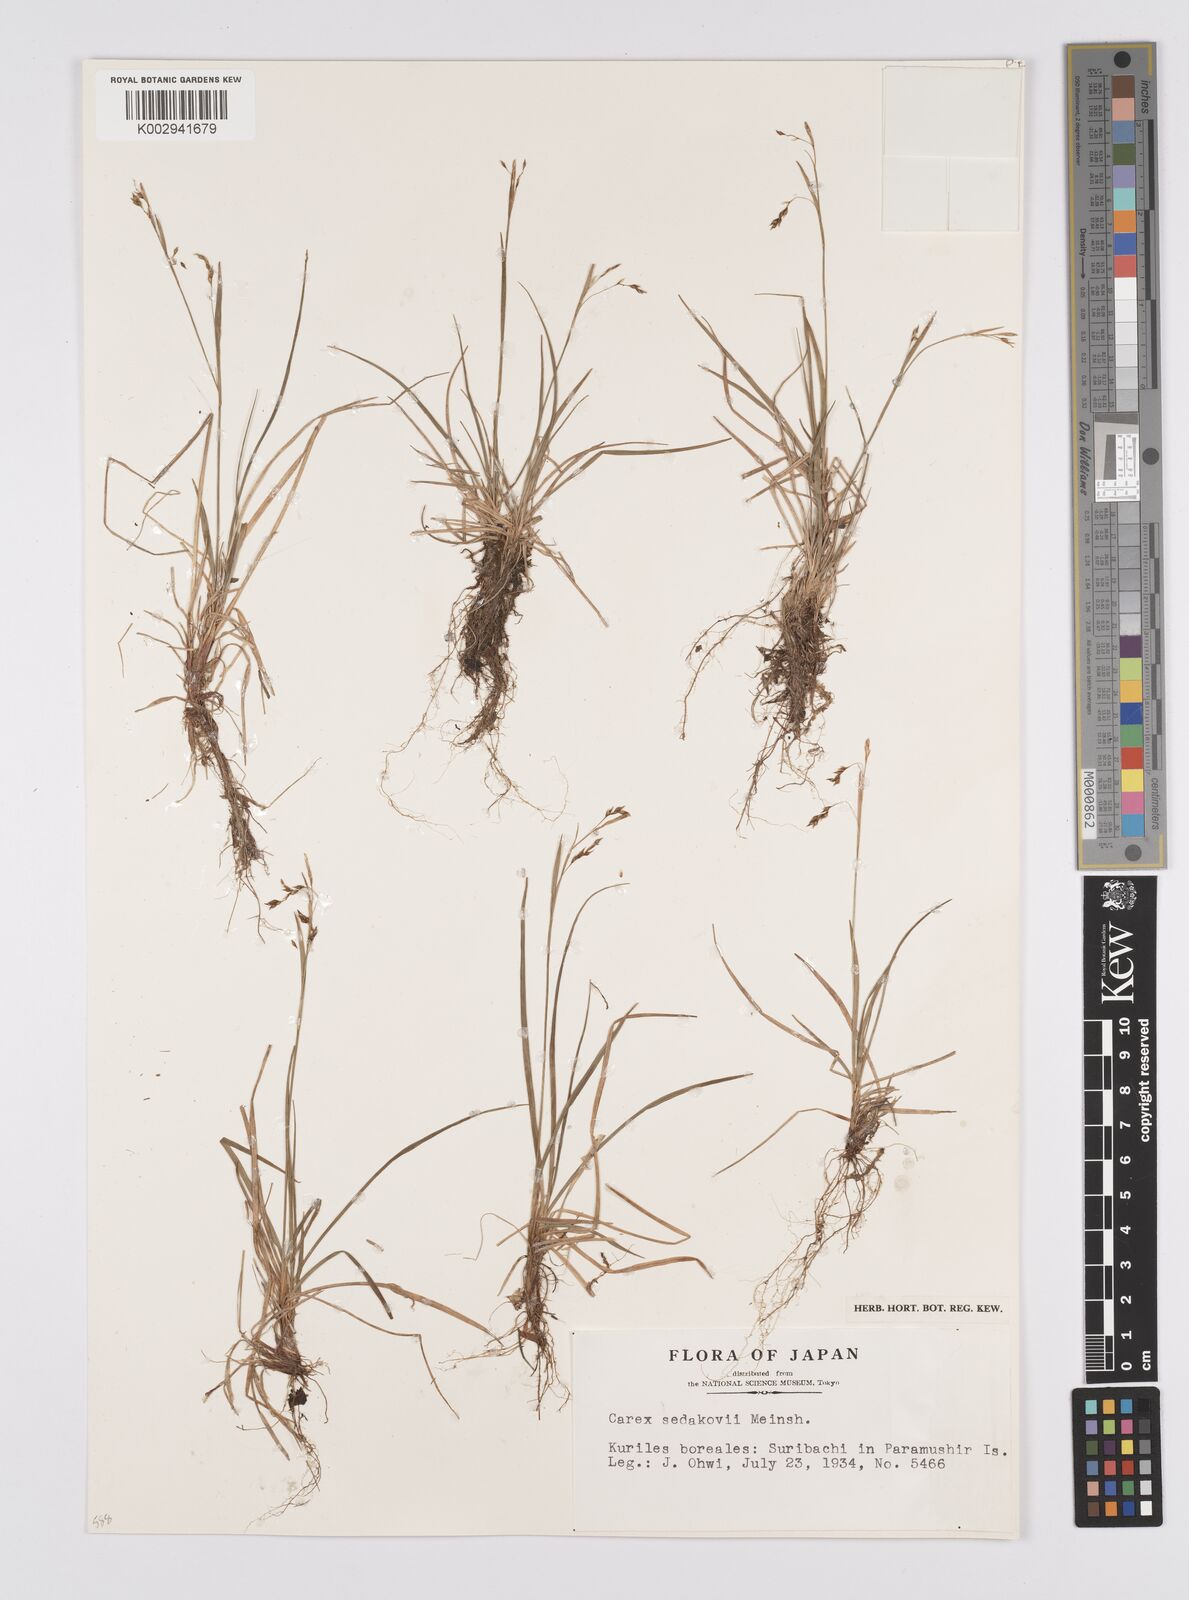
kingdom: Plantae
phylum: Tracheophyta
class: Liliopsida
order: Poales
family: Cyperaceae
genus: Carex
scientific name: Carex sedakowii
